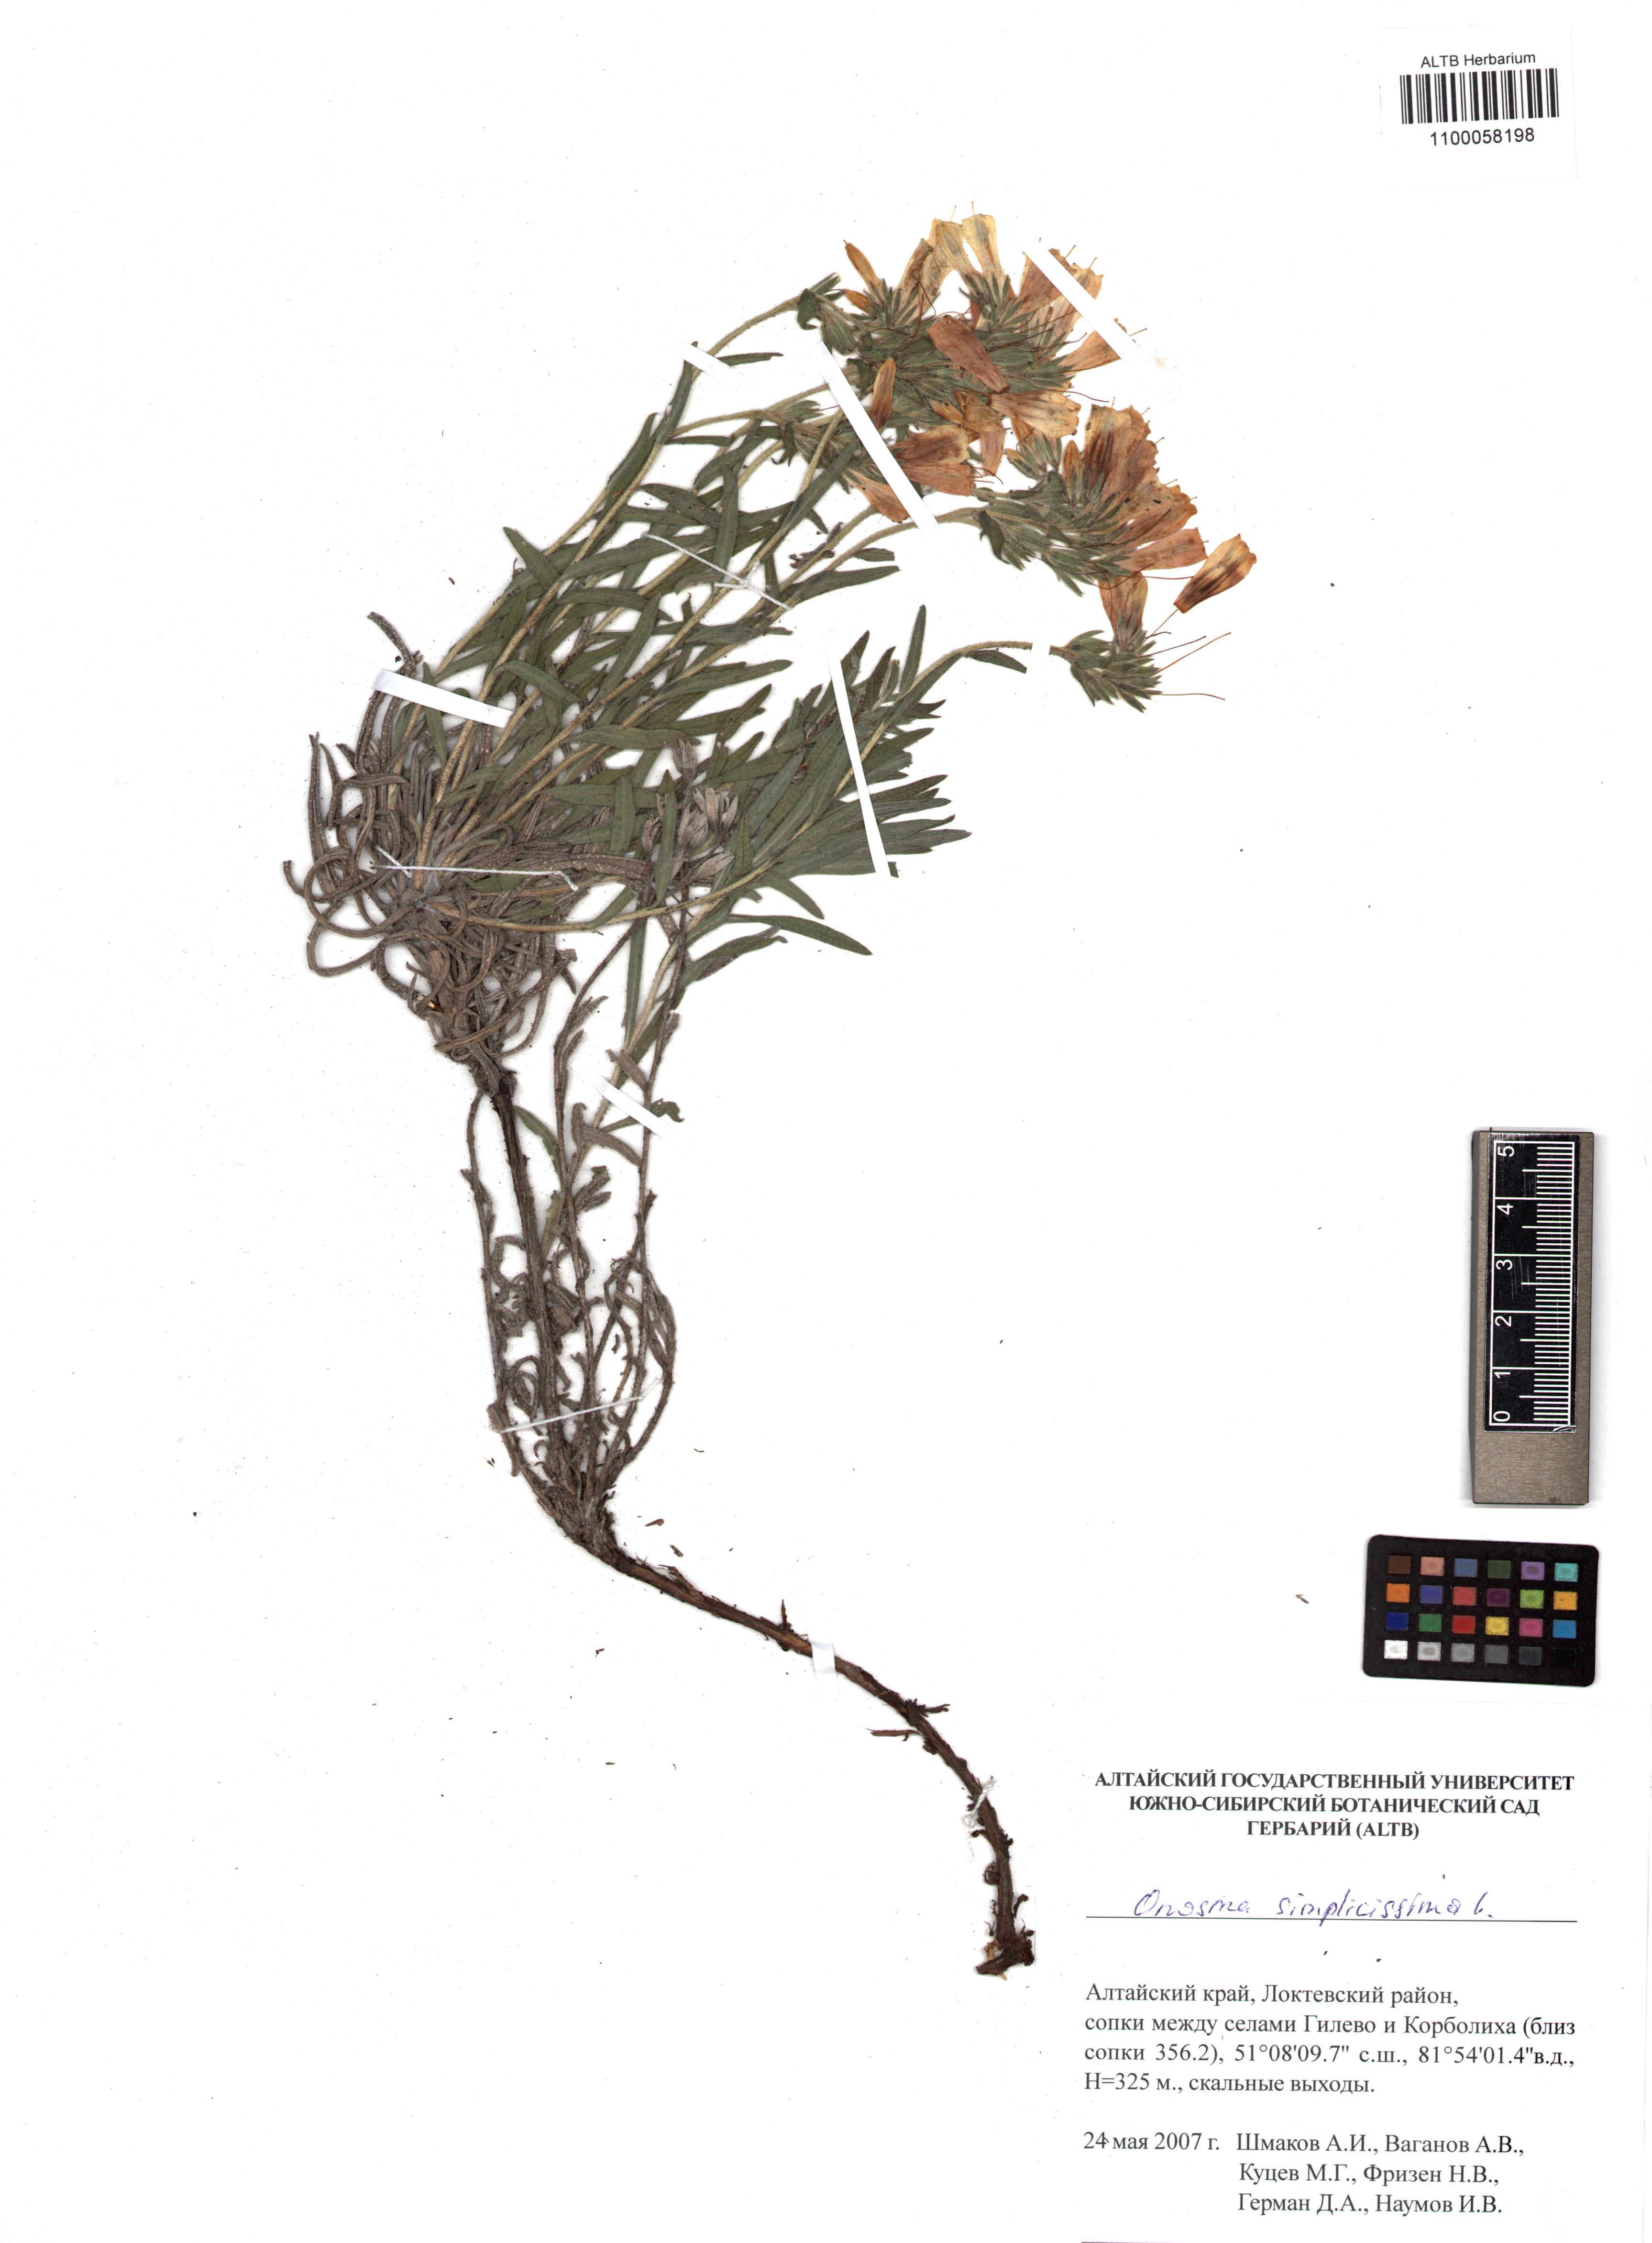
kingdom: Plantae
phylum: Tracheophyta
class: Magnoliopsida
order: Boraginales
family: Boraginaceae
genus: Onosma
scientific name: Onosma simplicissima
